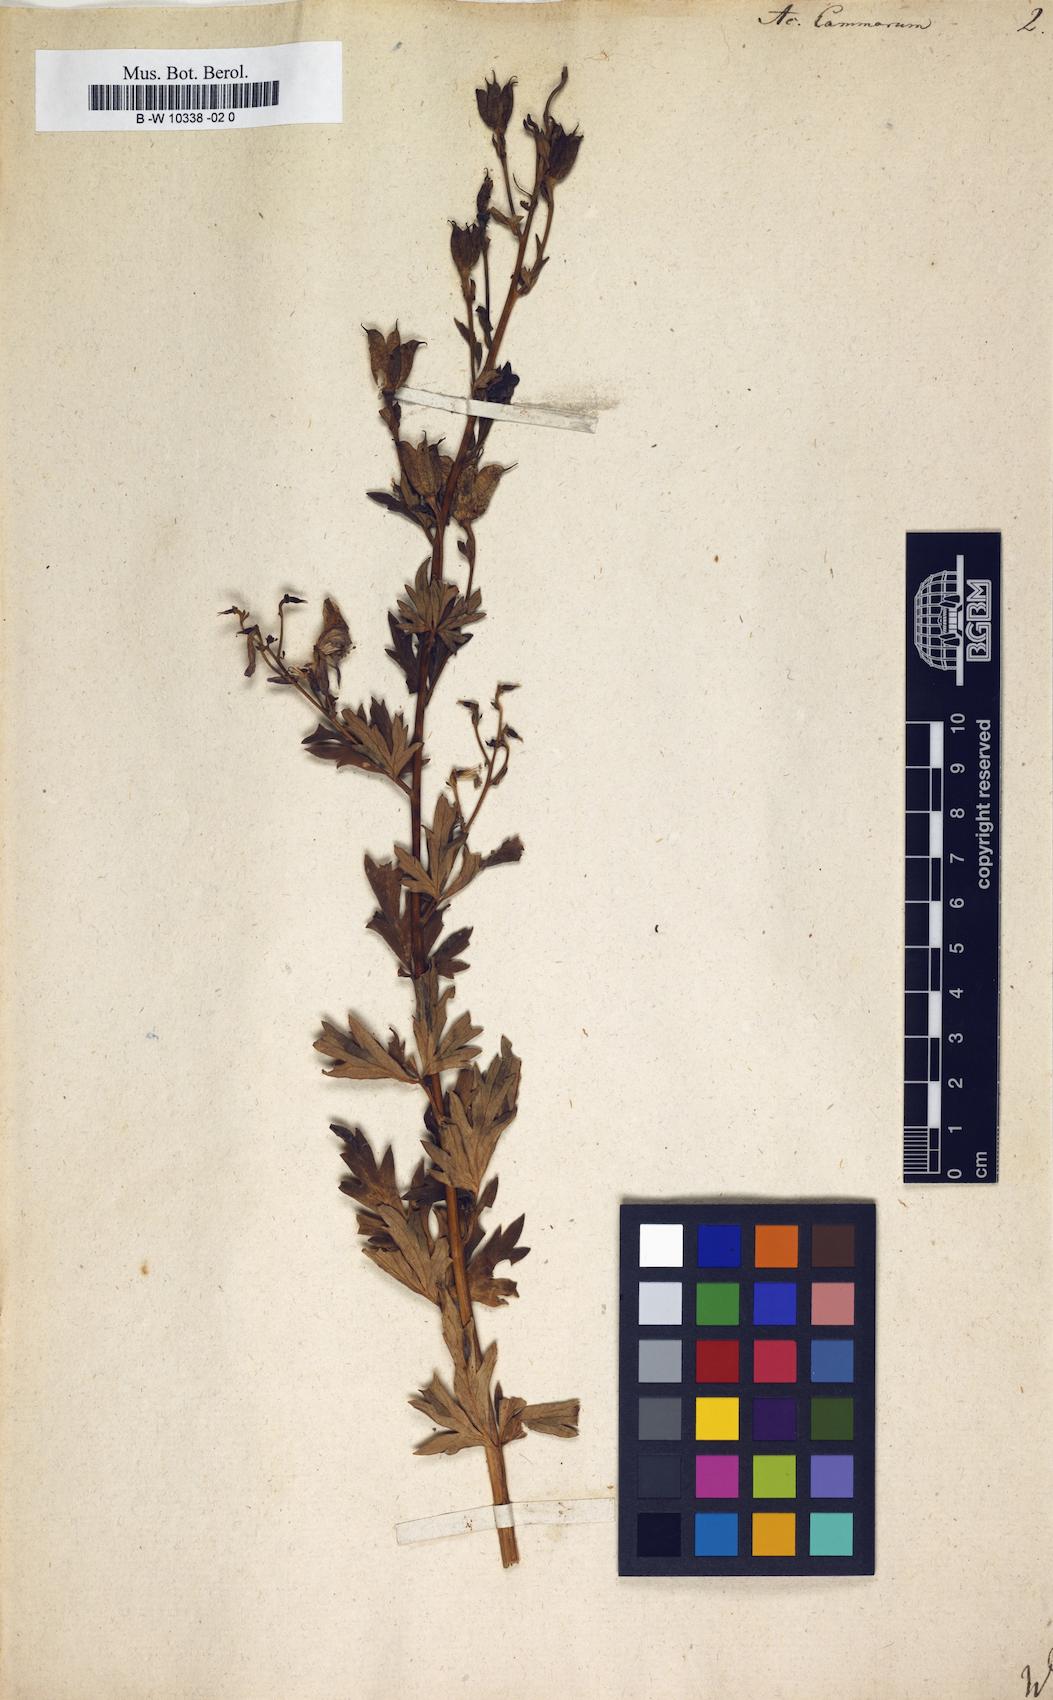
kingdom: Plantae
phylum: Tracheophyta
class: Magnoliopsida
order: Ranunculales
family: Ranunculaceae
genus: Aconitum
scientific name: Aconitum variegatum
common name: Manchurian monkshood
